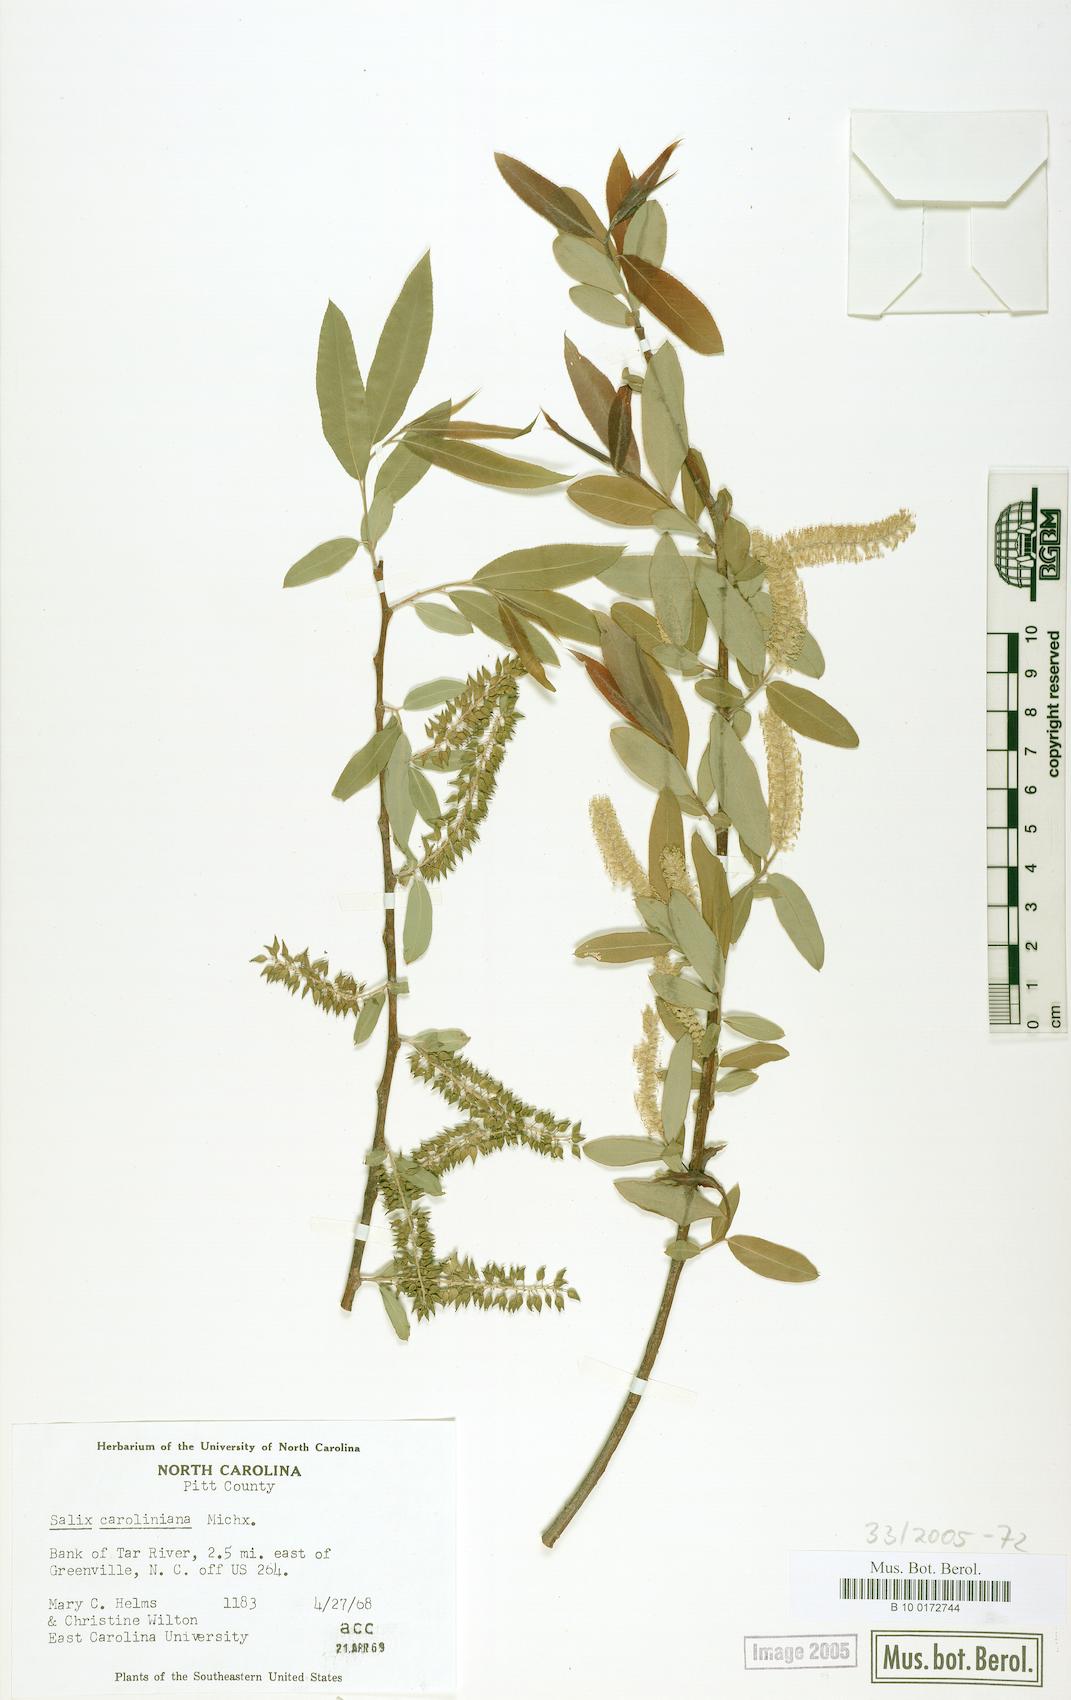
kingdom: Plantae
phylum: Tracheophyta
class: Magnoliopsida
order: Malpighiales
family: Salicaceae
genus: Salix
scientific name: Salix caroliniana
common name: Carolina willow
